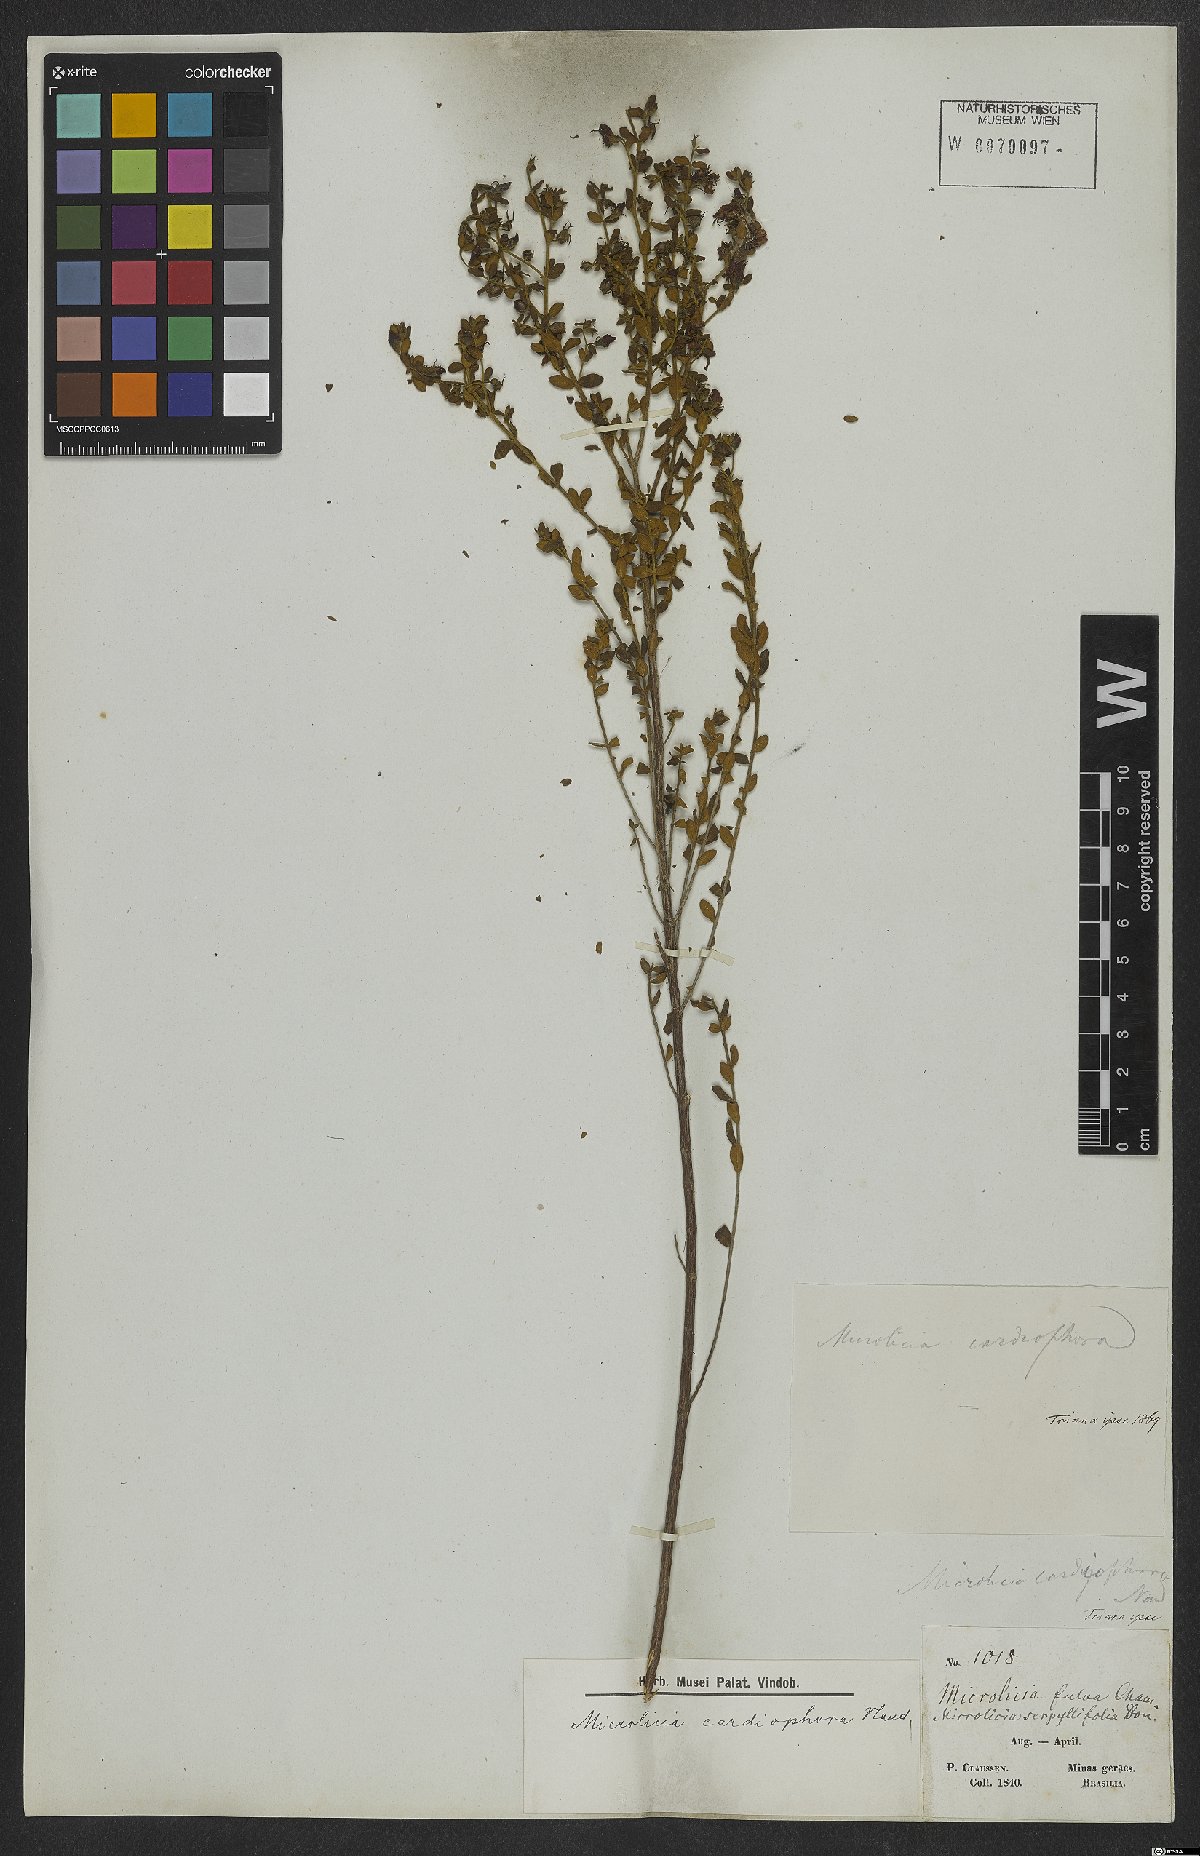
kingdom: Plantae
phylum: Tracheophyta
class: Magnoliopsida
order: Myrtales
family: Melastomataceae
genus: Microlicia
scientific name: Microlicia cardiophora
